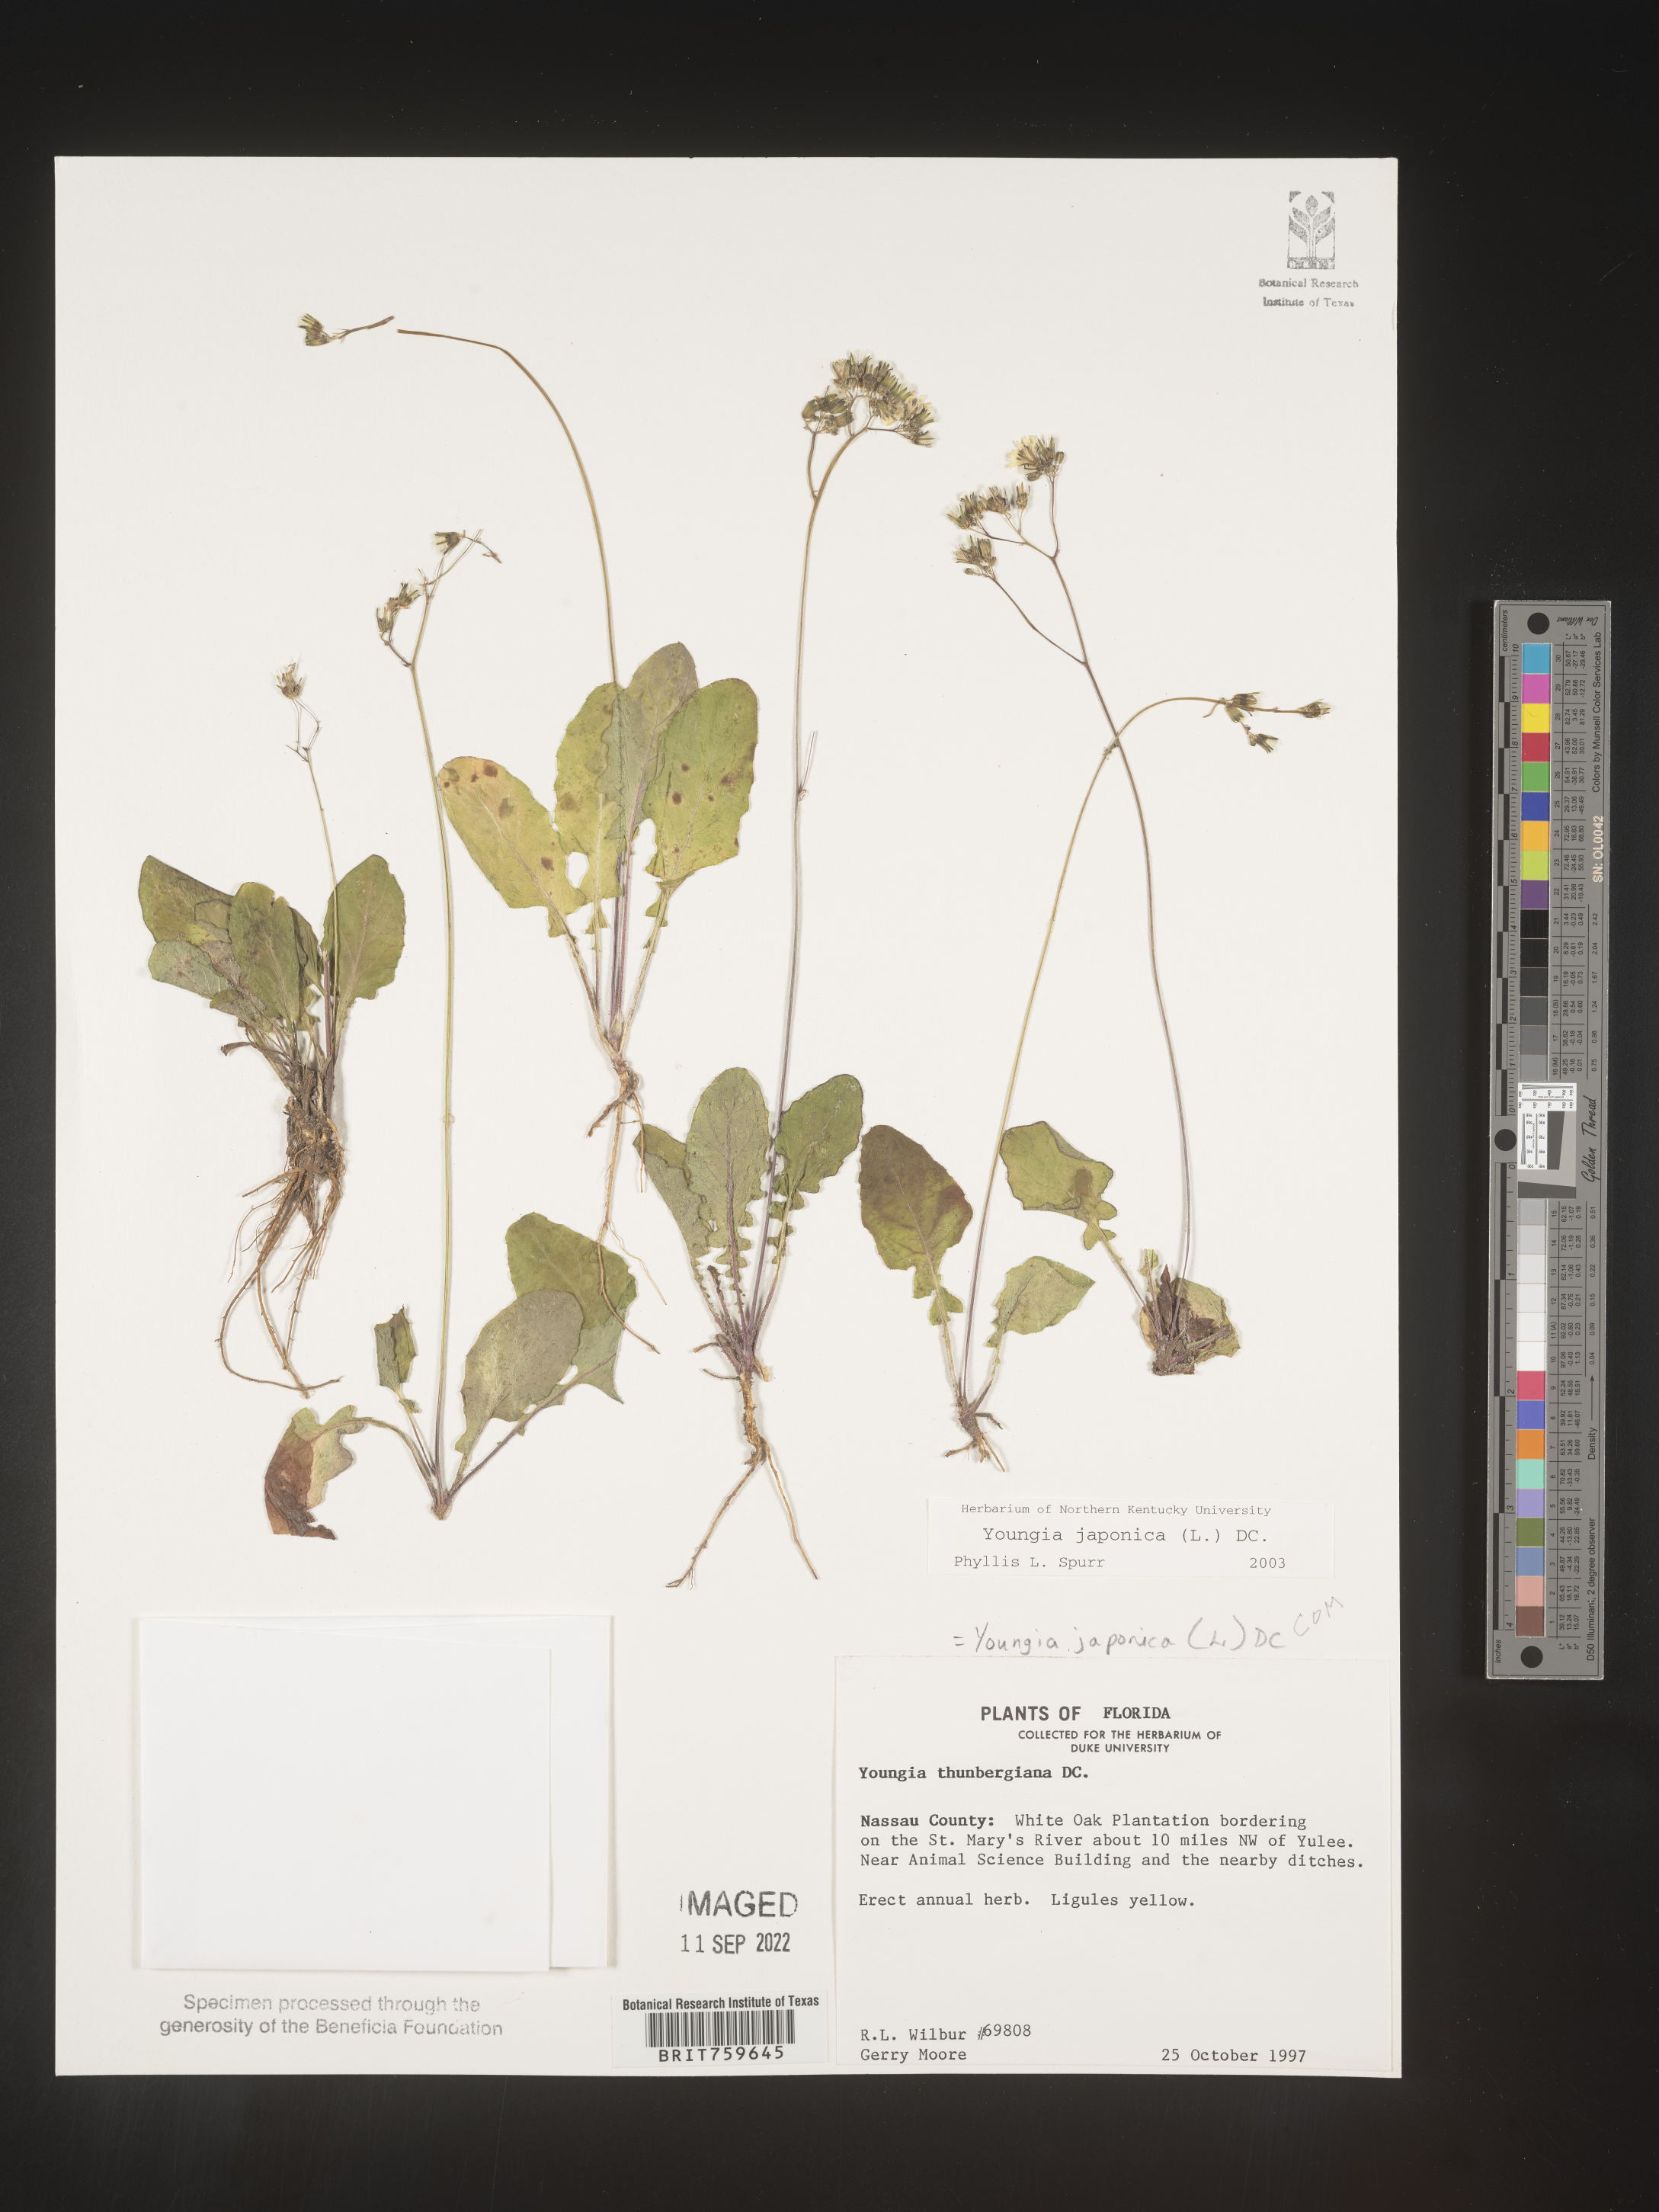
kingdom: Plantae
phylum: Tracheophyta
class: Magnoliopsida
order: Asterales
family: Asteraceae
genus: Youngia
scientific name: Youngia japonica
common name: Oriental false hawksbeard
